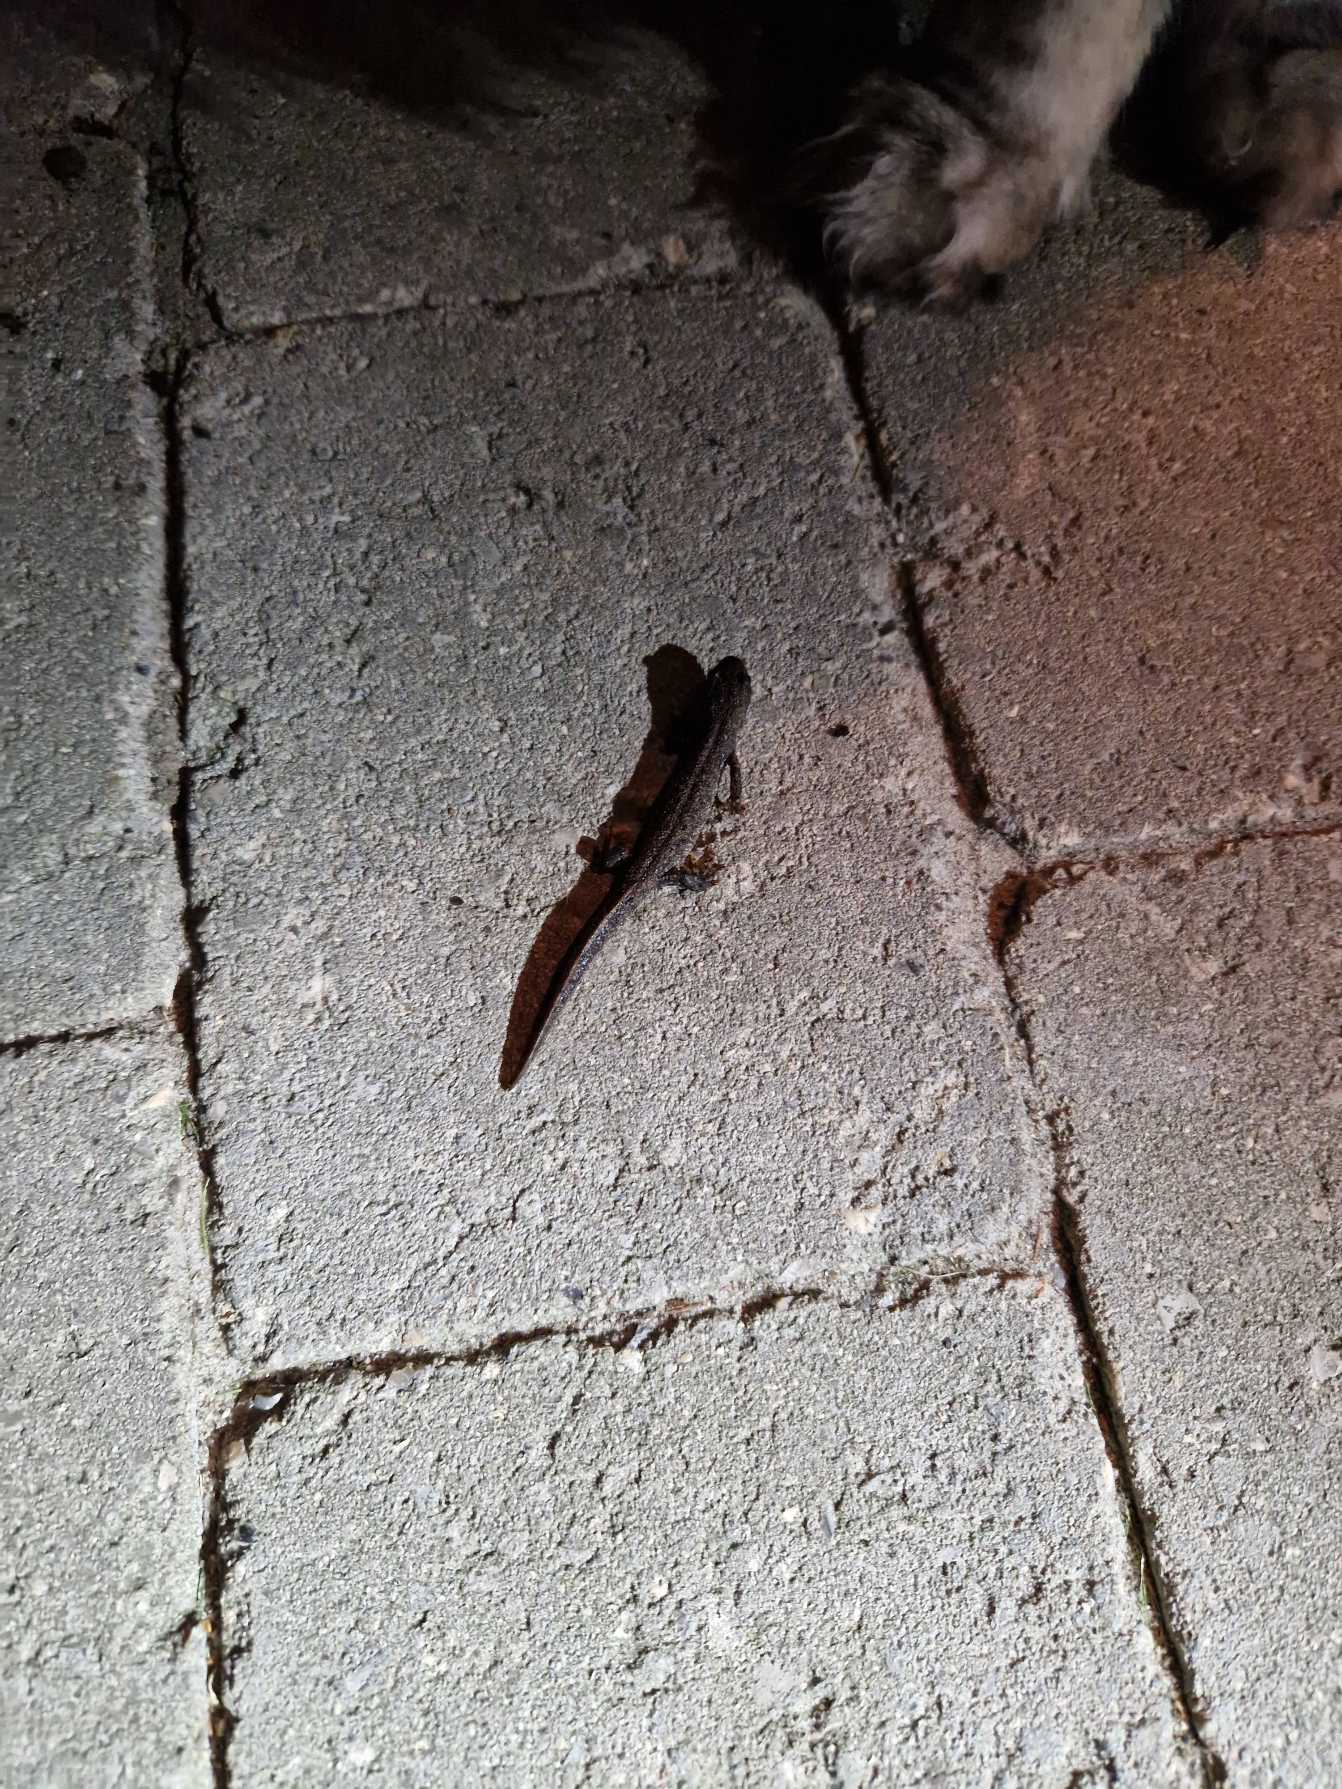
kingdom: Animalia
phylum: Chordata
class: Amphibia
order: Caudata
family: Salamandridae
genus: Triturus
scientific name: Triturus cristatus
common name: Stor vandsalamander
